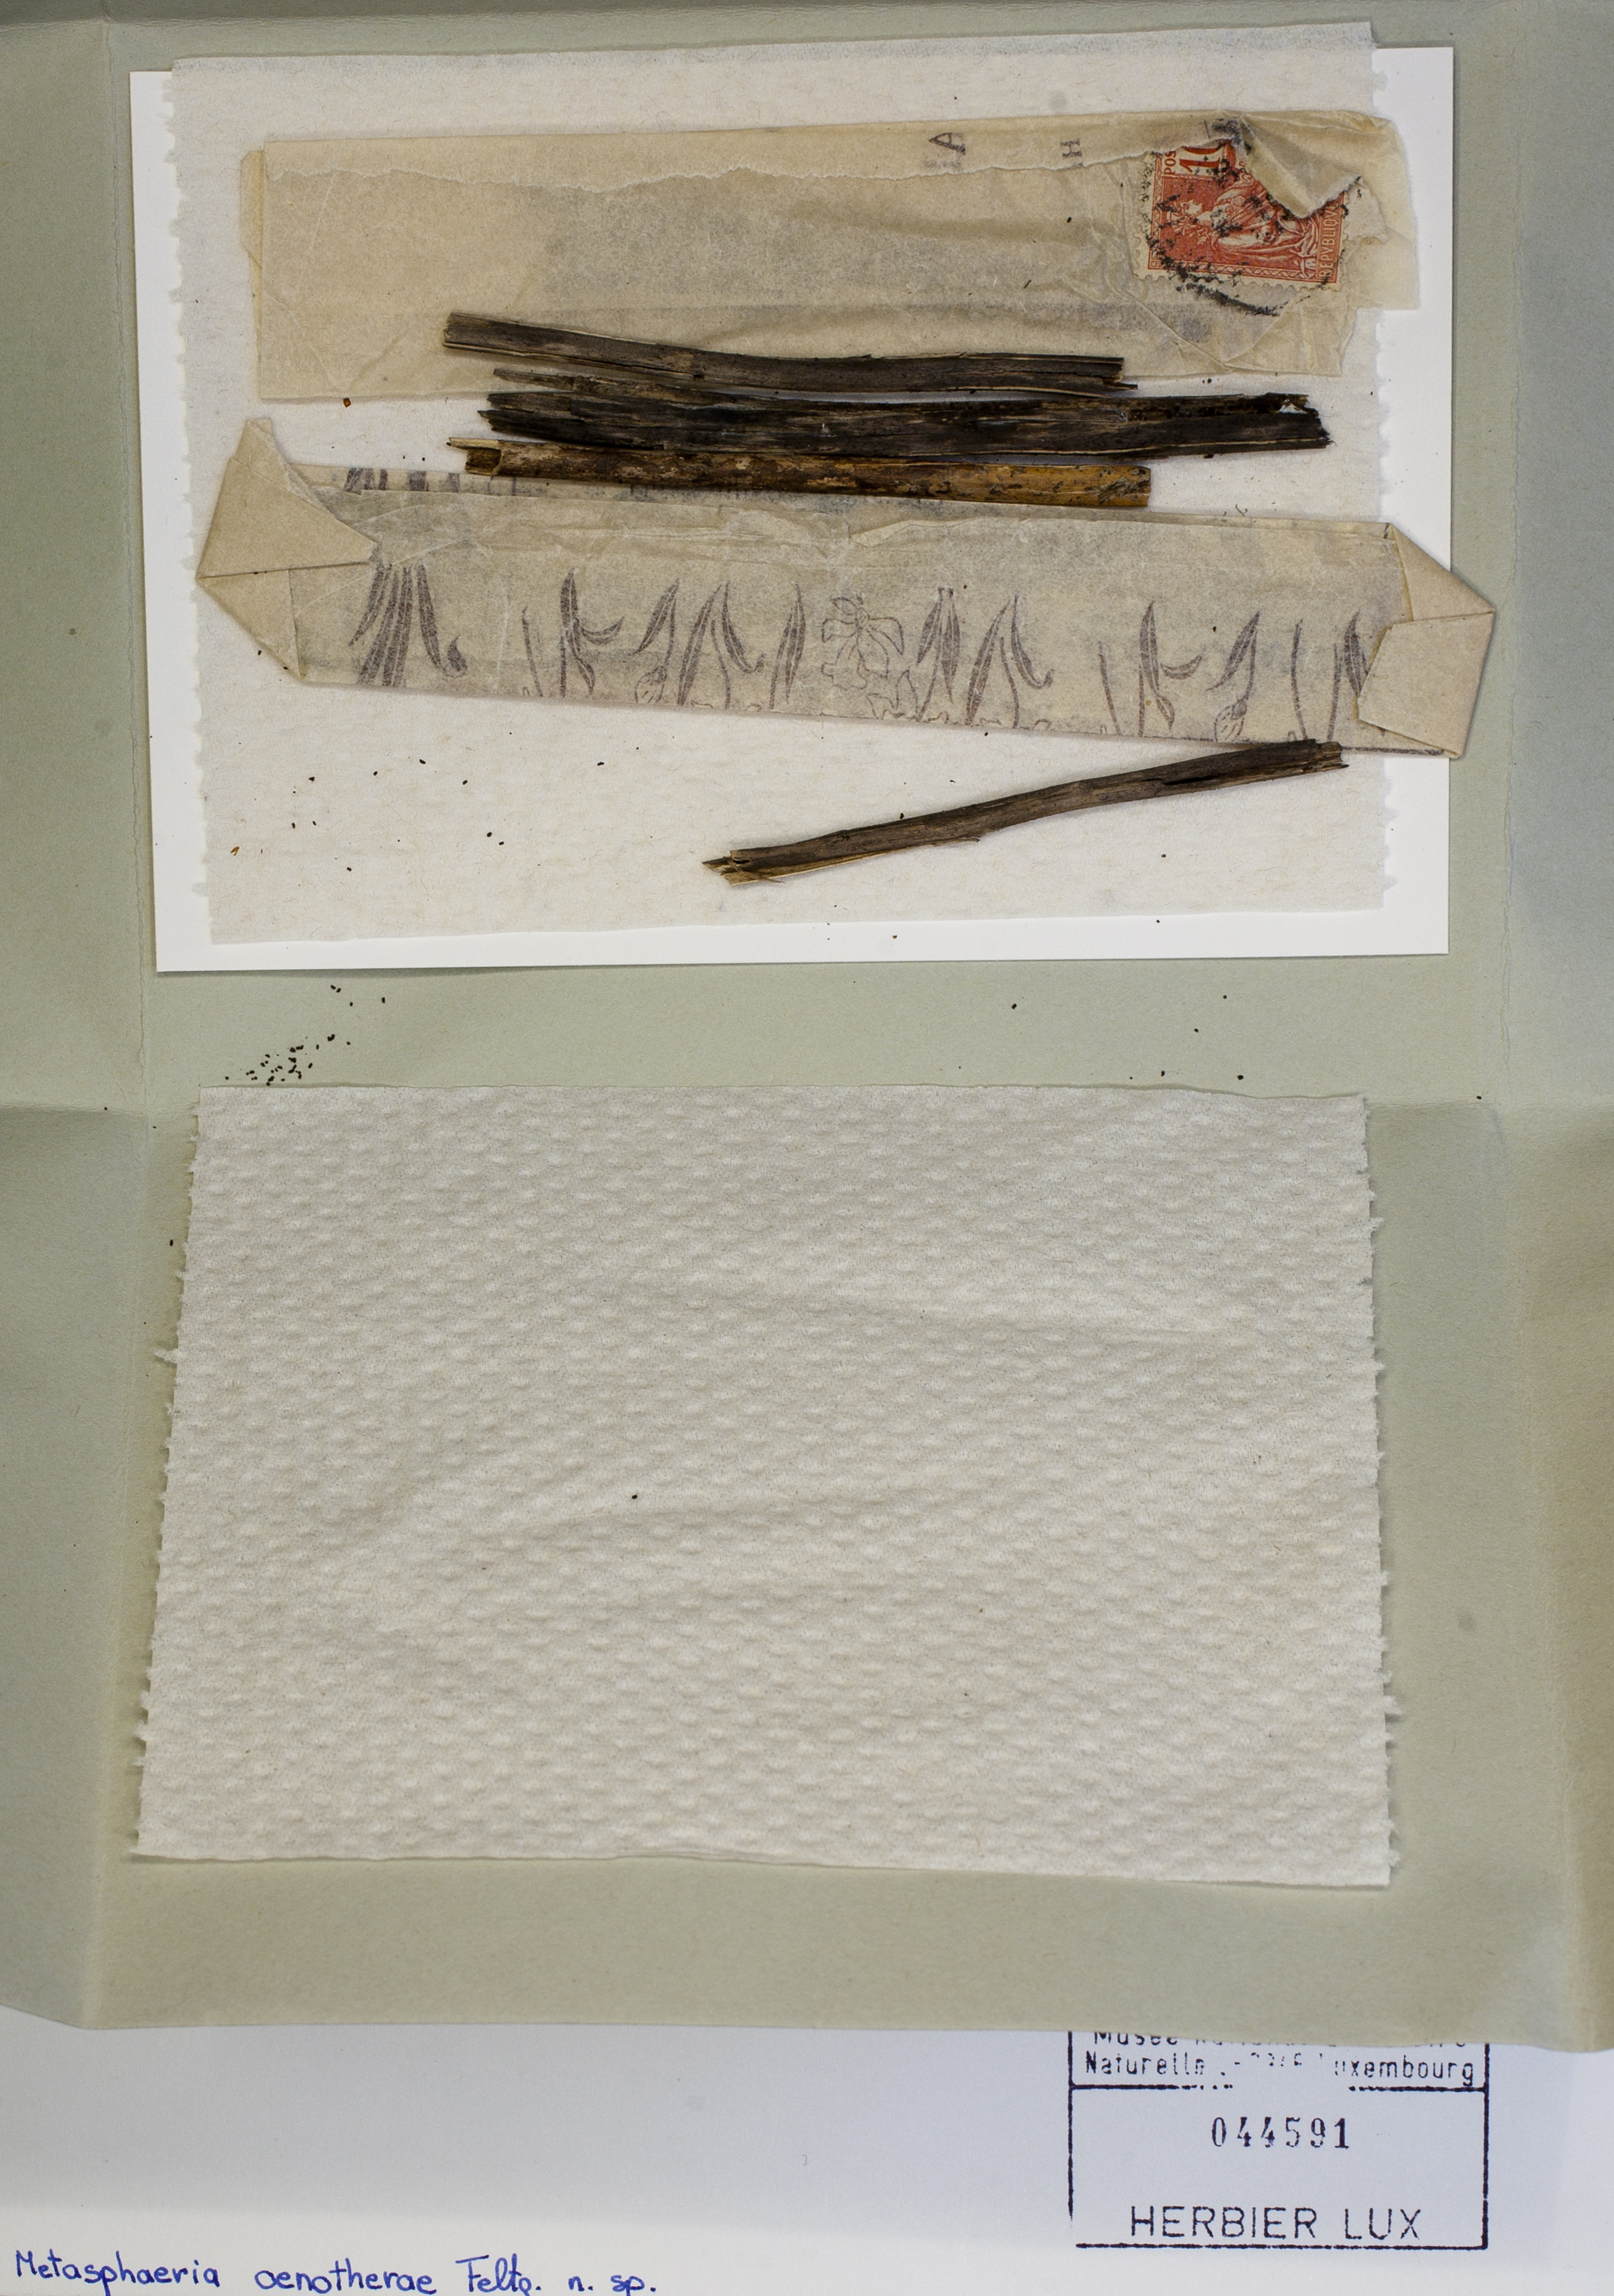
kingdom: Fungi
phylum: Ascomycota
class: Dothideomycetes
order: Pleosporales
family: Lophiostomataceae
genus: Lophiotrema
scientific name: Lophiotrema curreyi
